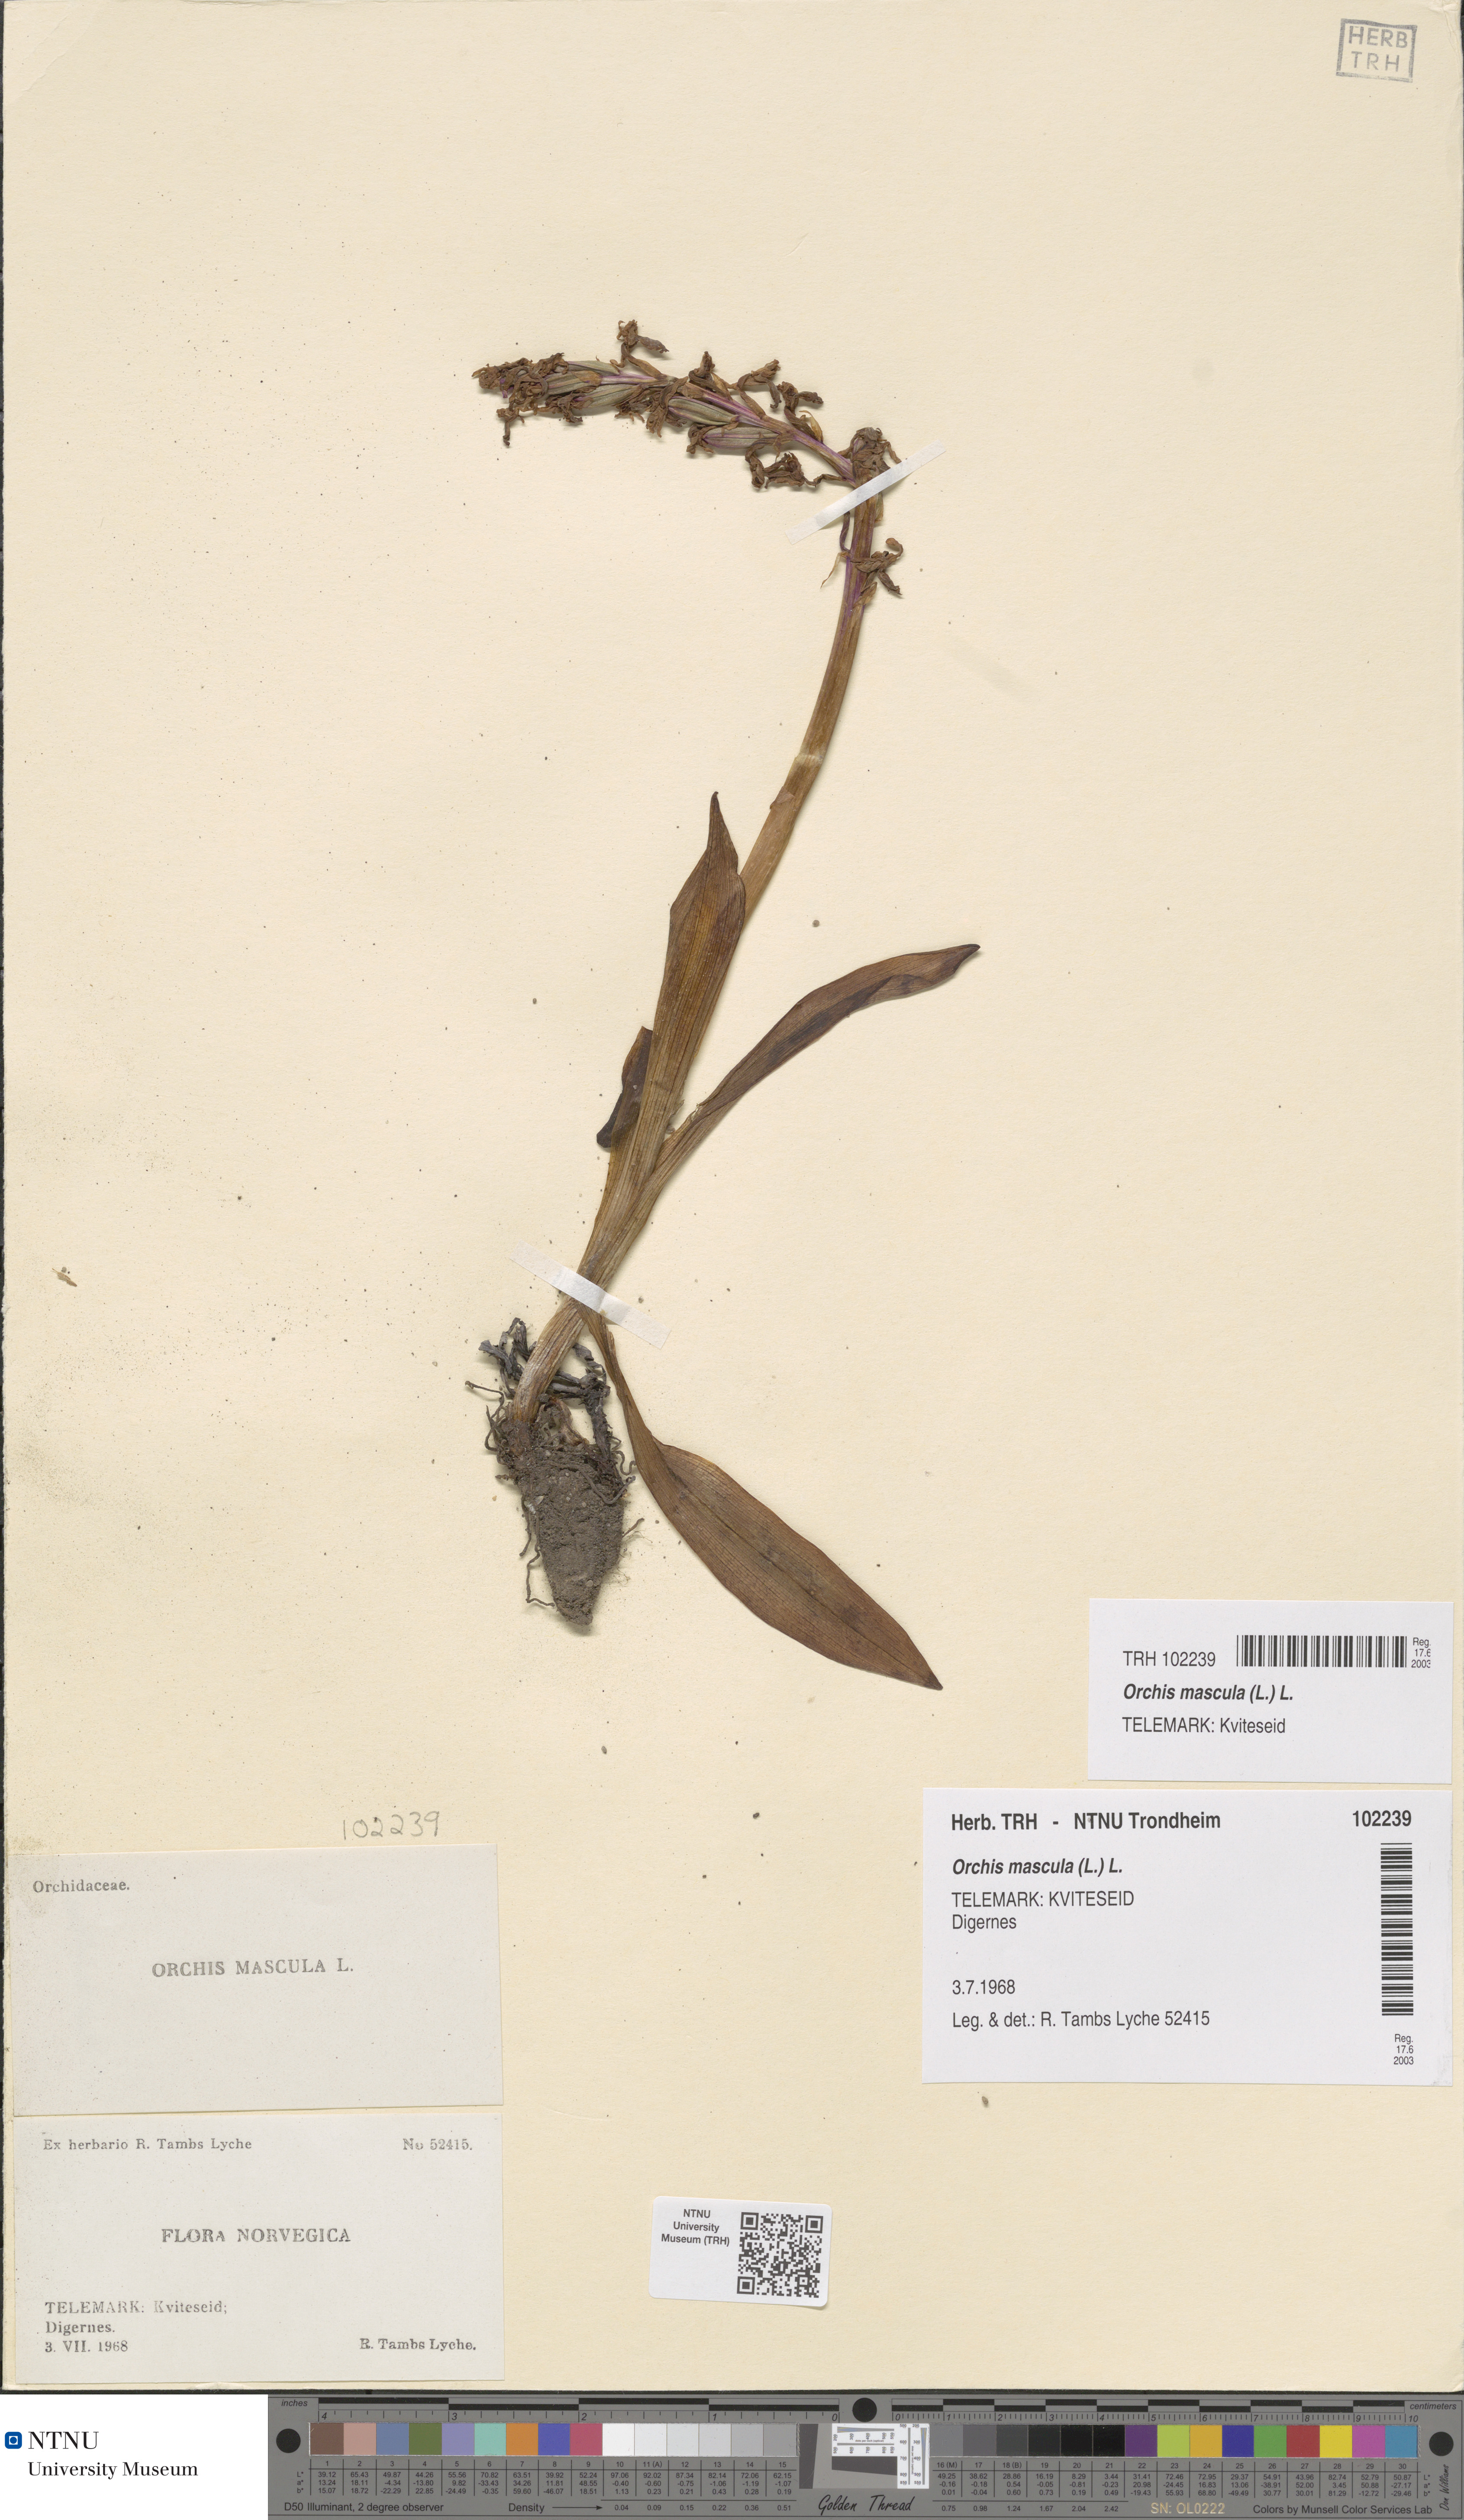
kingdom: Plantae
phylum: Tracheophyta
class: Liliopsida
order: Asparagales
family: Orchidaceae
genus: Orchis
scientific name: Orchis mascula
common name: Early-purple orchid
